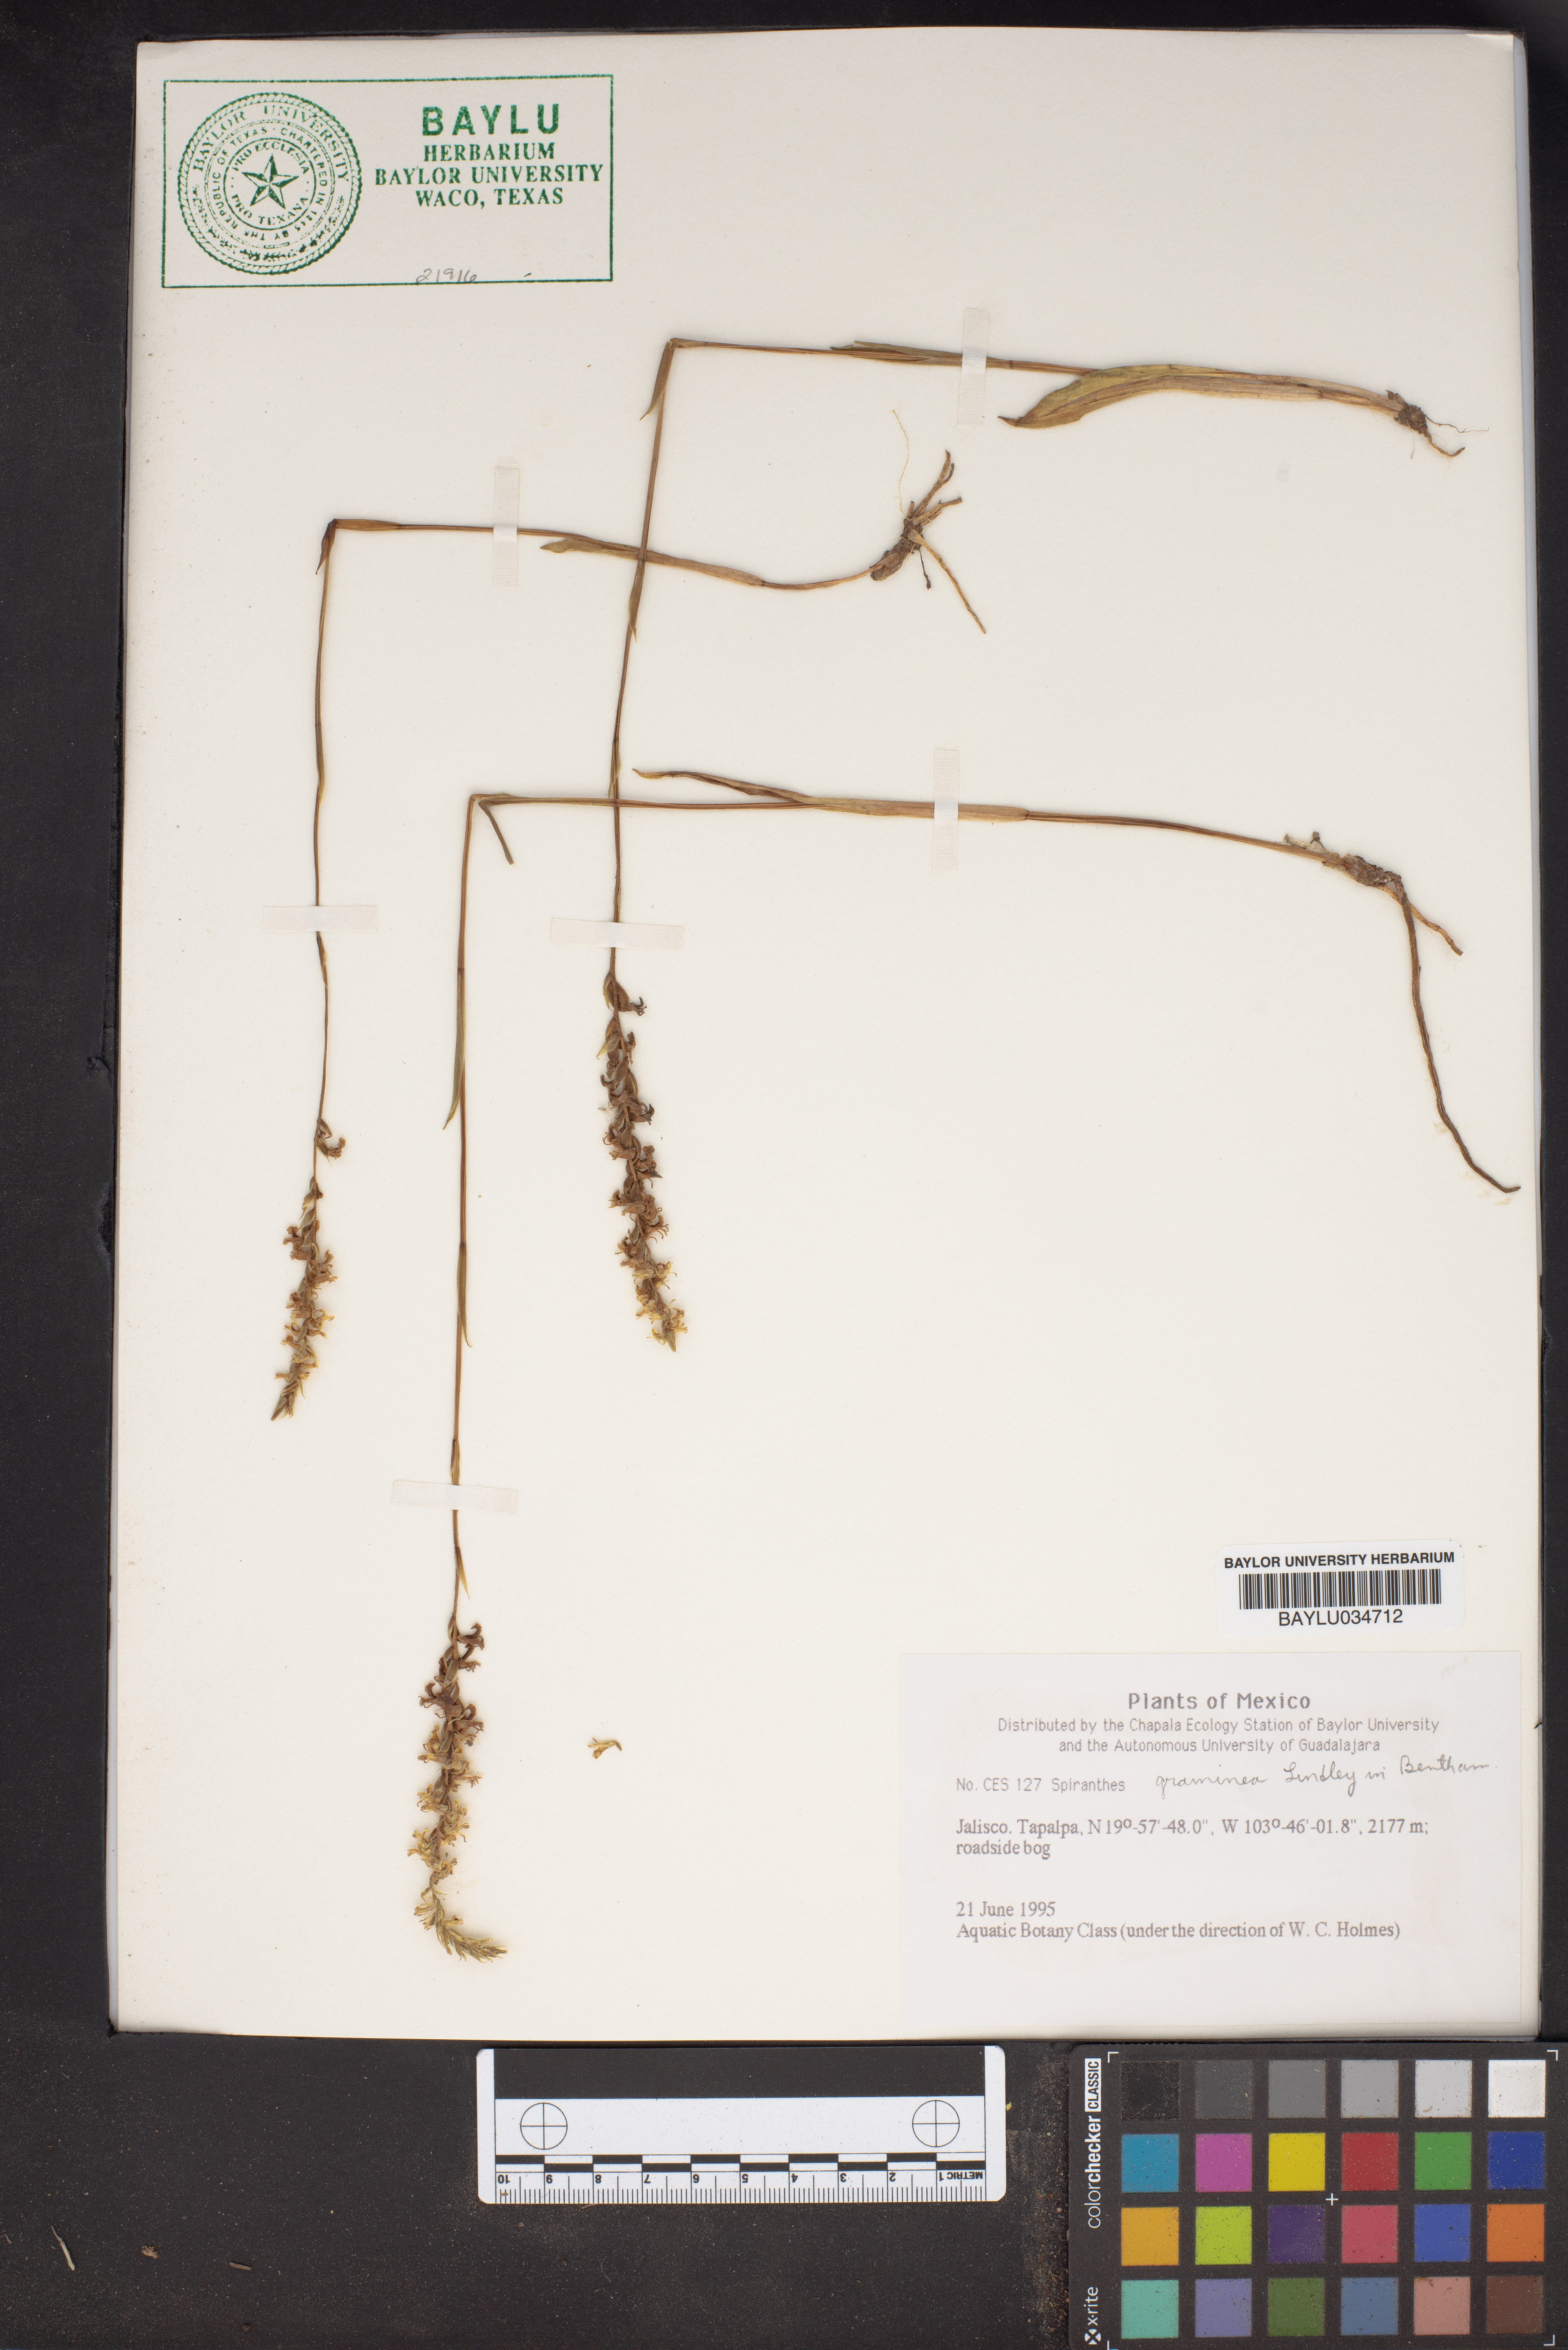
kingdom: Plantae
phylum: Tracheophyta
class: Liliopsida
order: Asparagales
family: Orchidaceae
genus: Spiranthes
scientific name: Spiranthes graminea
